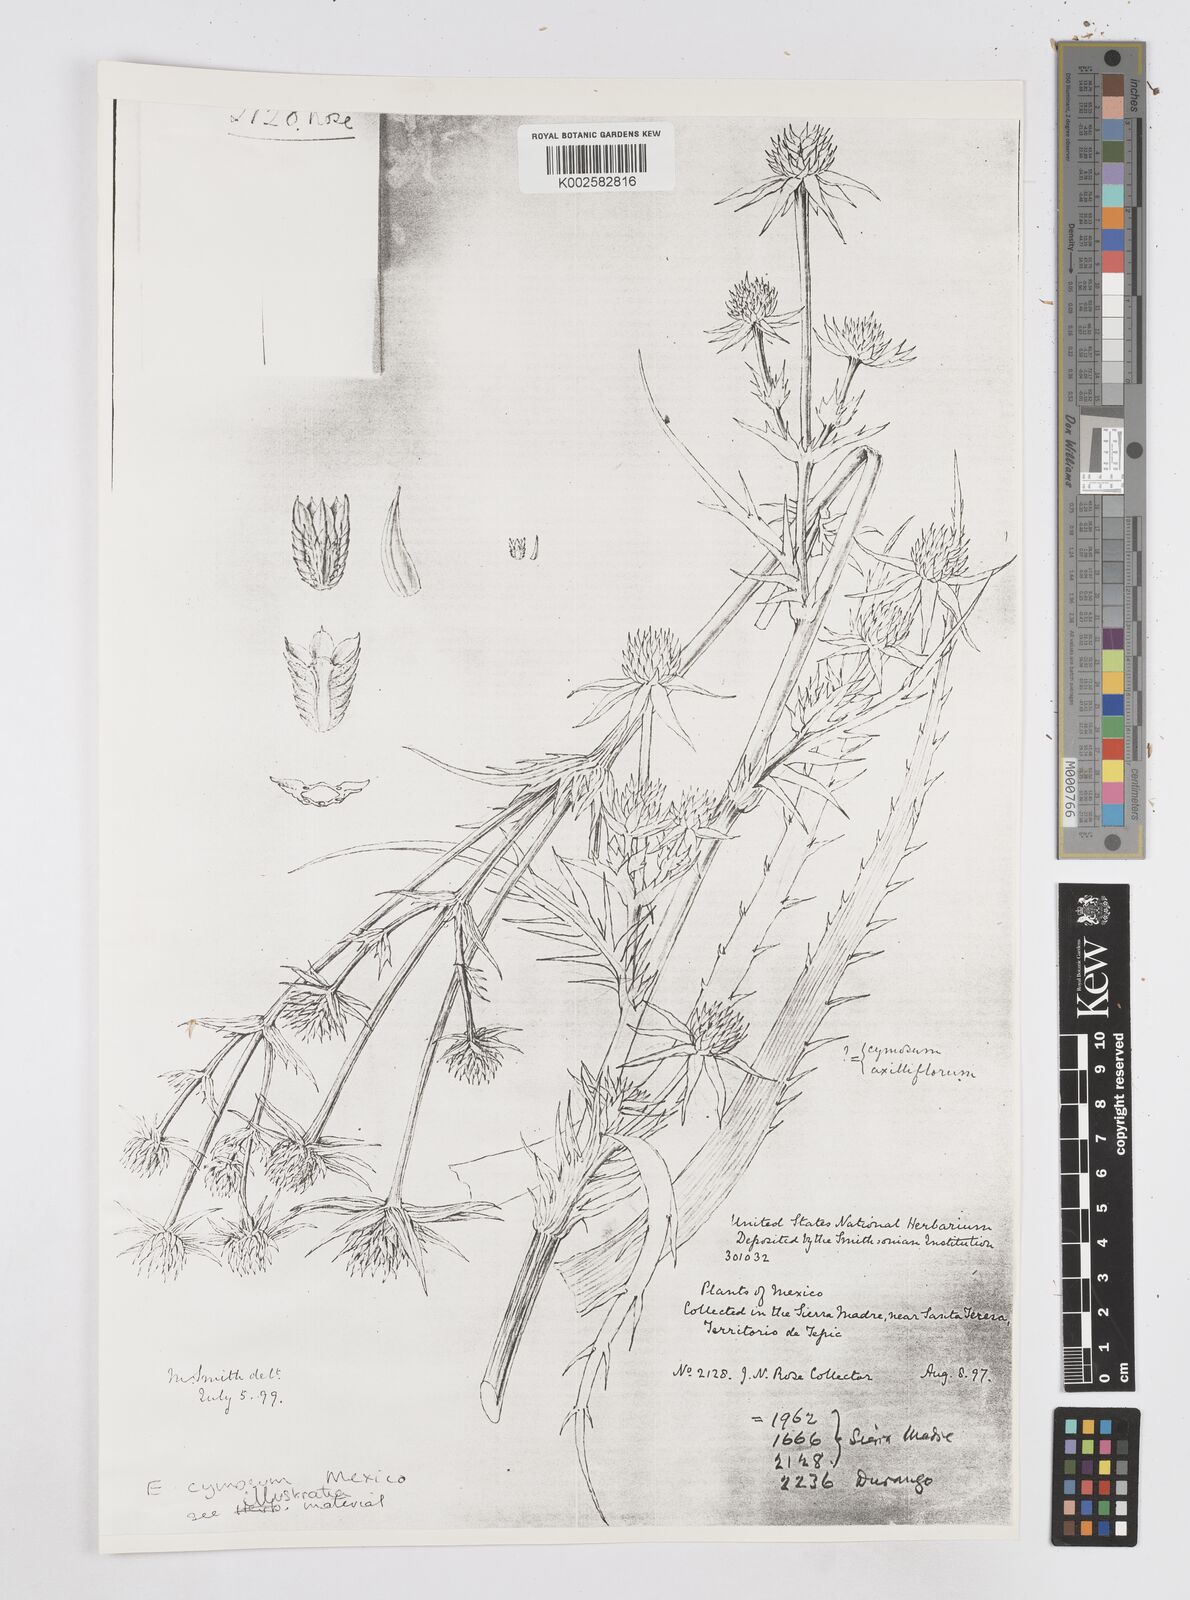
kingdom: Plantae
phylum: Tracheophyta
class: Magnoliopsida
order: Apiales
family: Apiaceae
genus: Eryngium
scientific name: Eryngium cymosum
